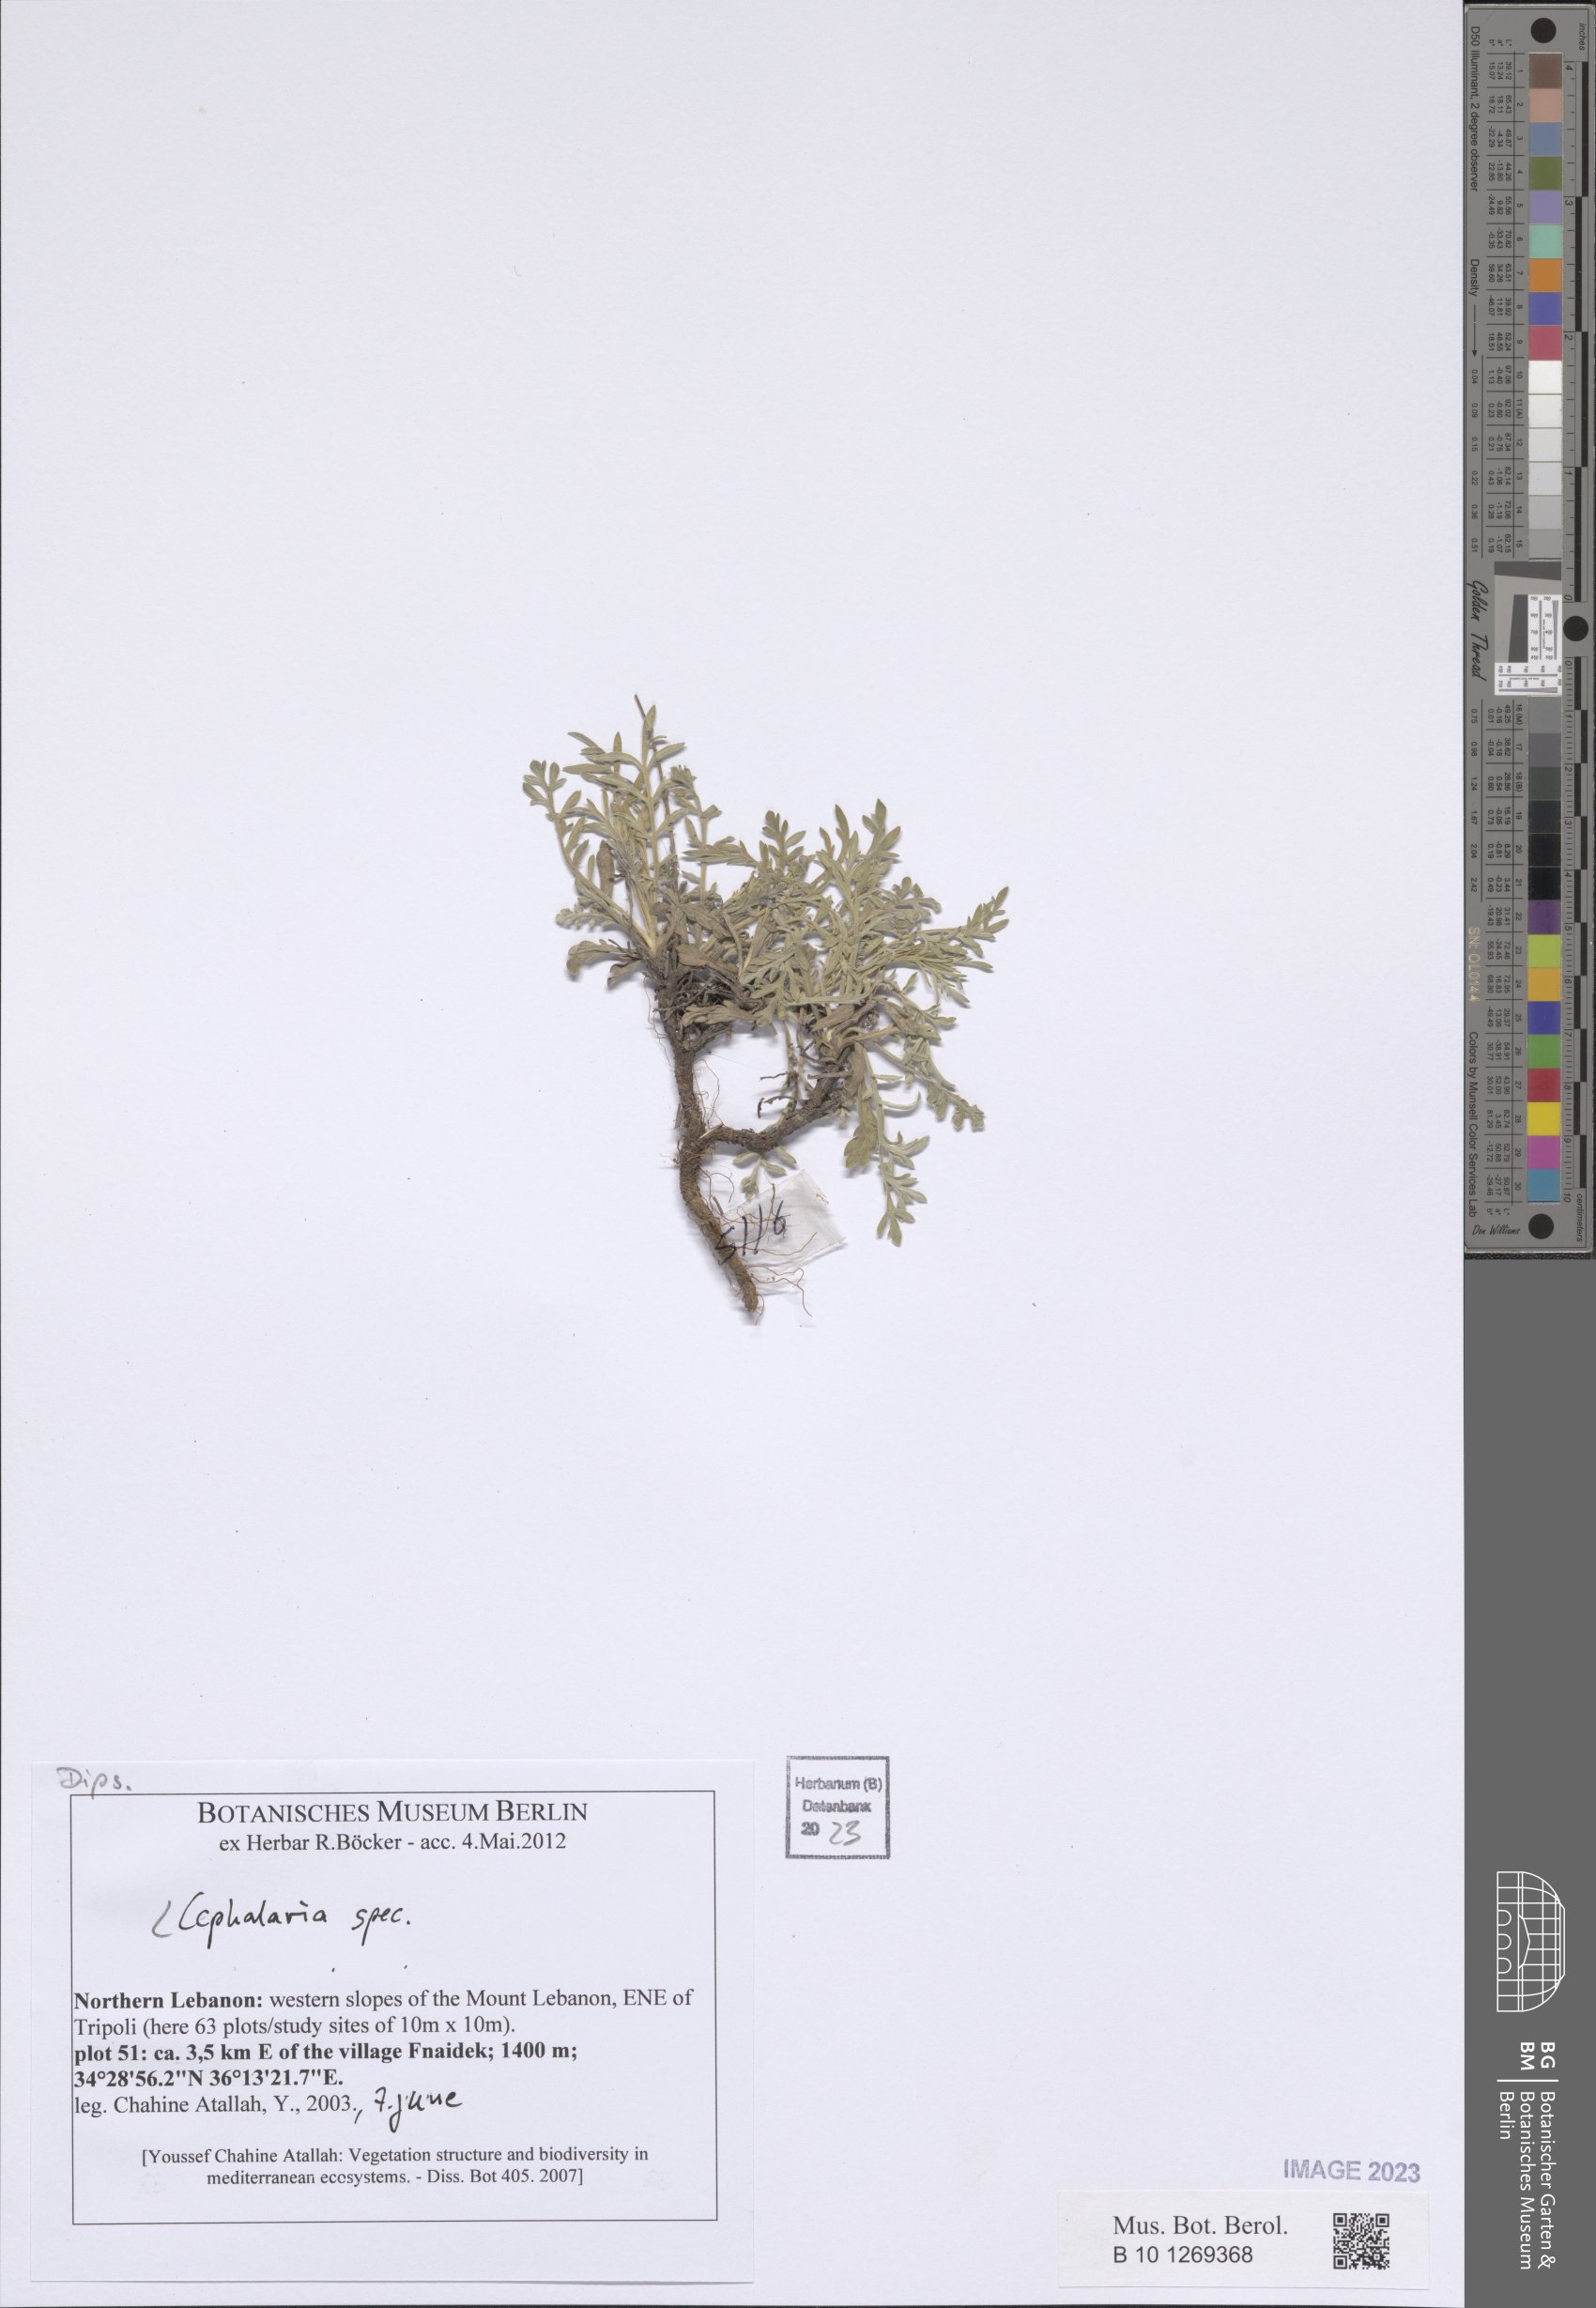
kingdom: Plantae
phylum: Tracheophyta
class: Magnoliopsida
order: Dipsacales
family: Dipsacaceae
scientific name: Dipsacaceae
